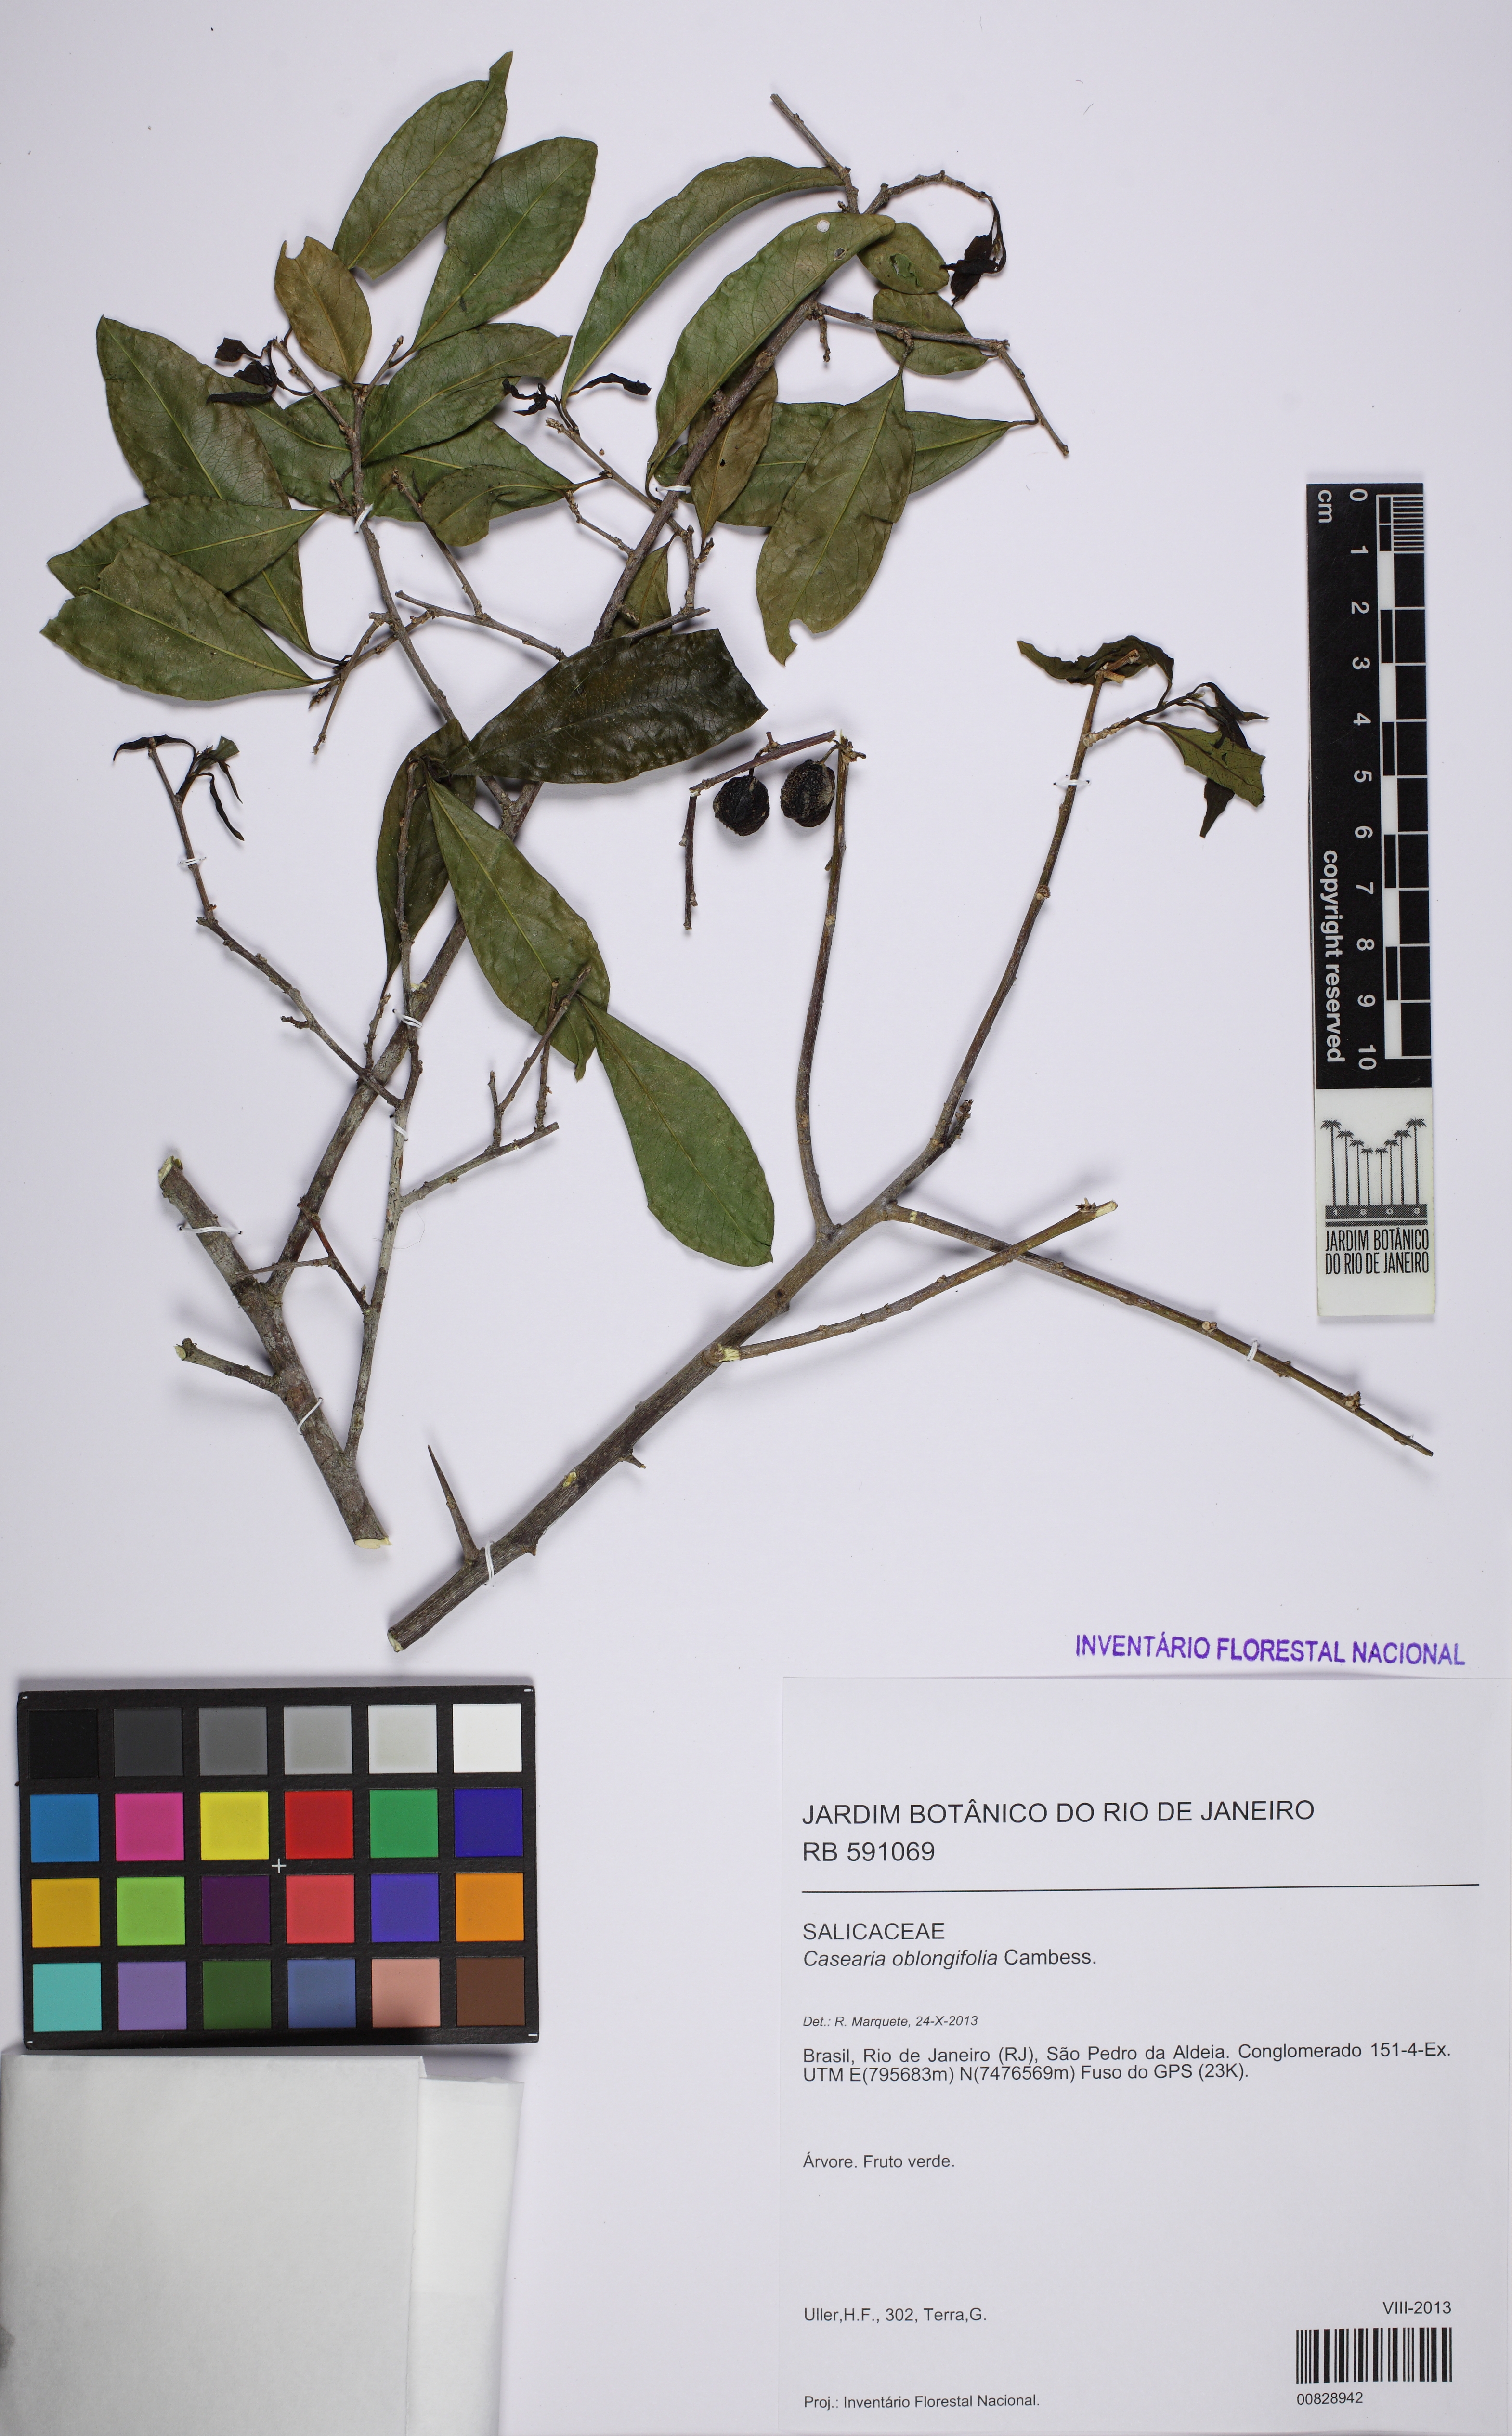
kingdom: Plantae
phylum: Tracheophyta
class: Magnoliopsida
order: Malpighiales
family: Salicaceae
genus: Casearia
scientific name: Casearia oblongifolia
